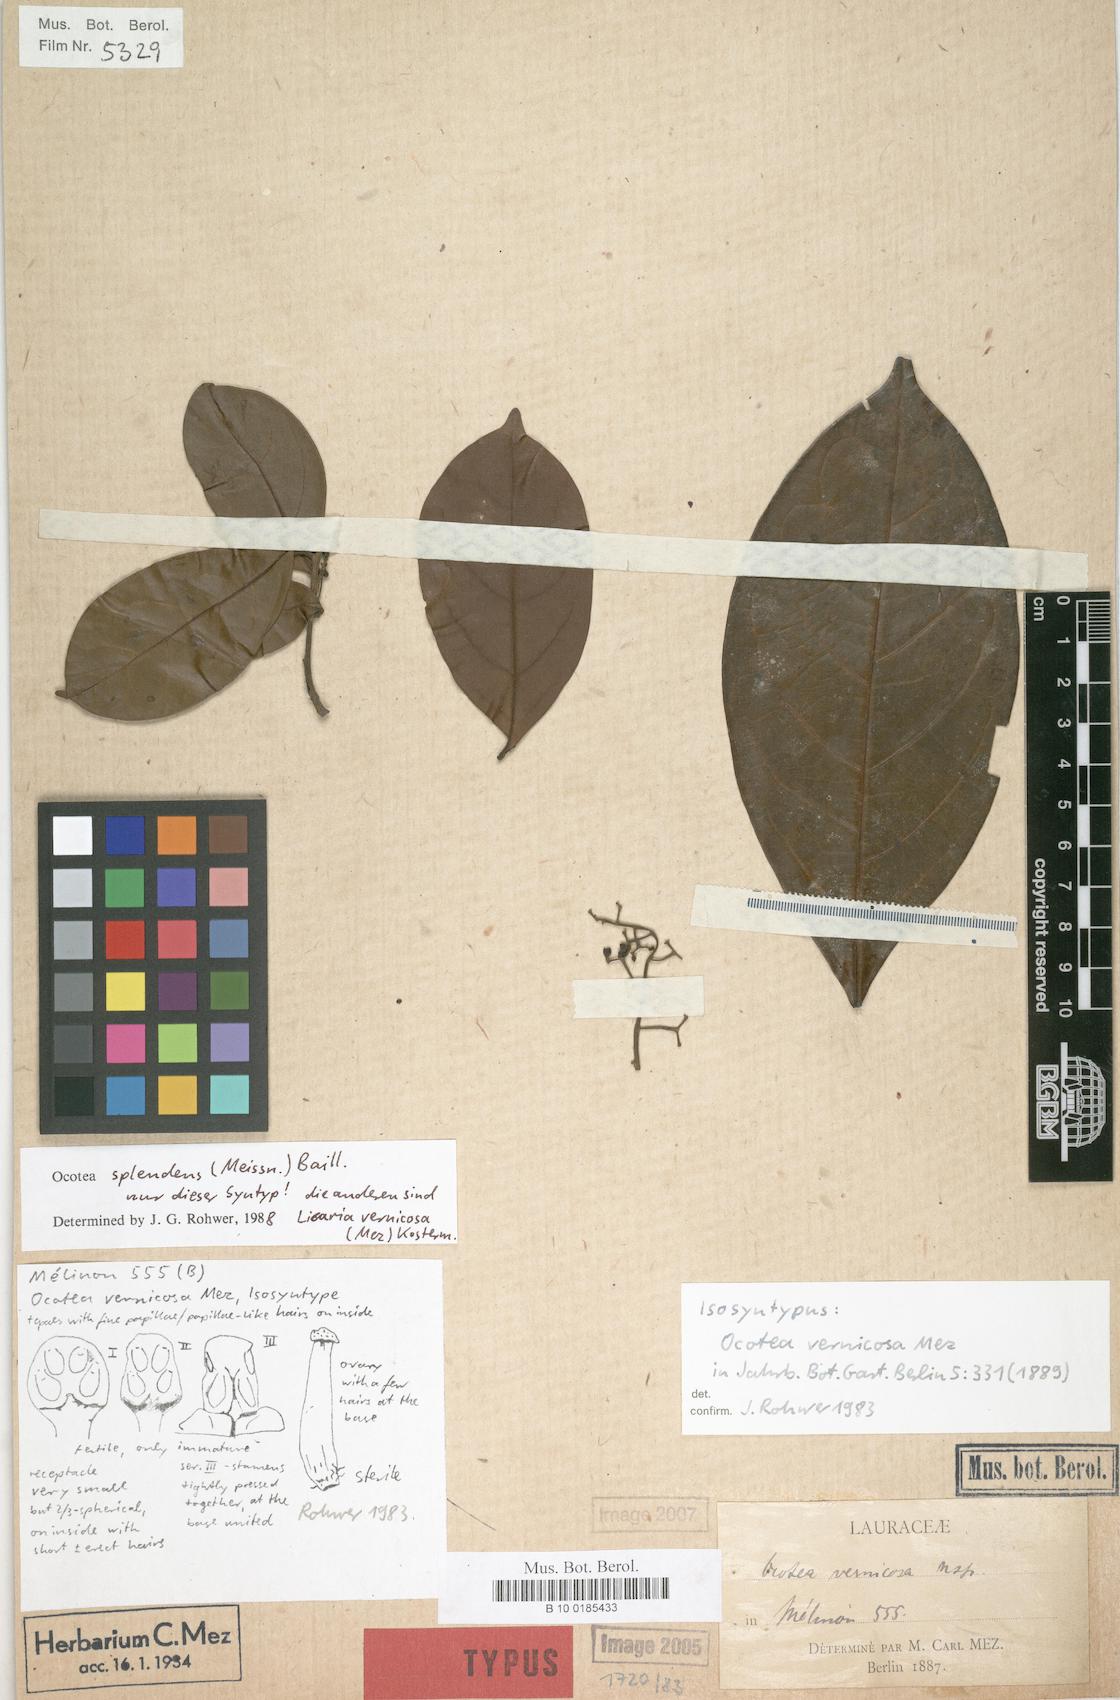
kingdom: Plantae
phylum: Tracheophyta
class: Magnoliopsida
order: Laurales
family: Lauraceae
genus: Ocotea
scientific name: Ocotea splendens
